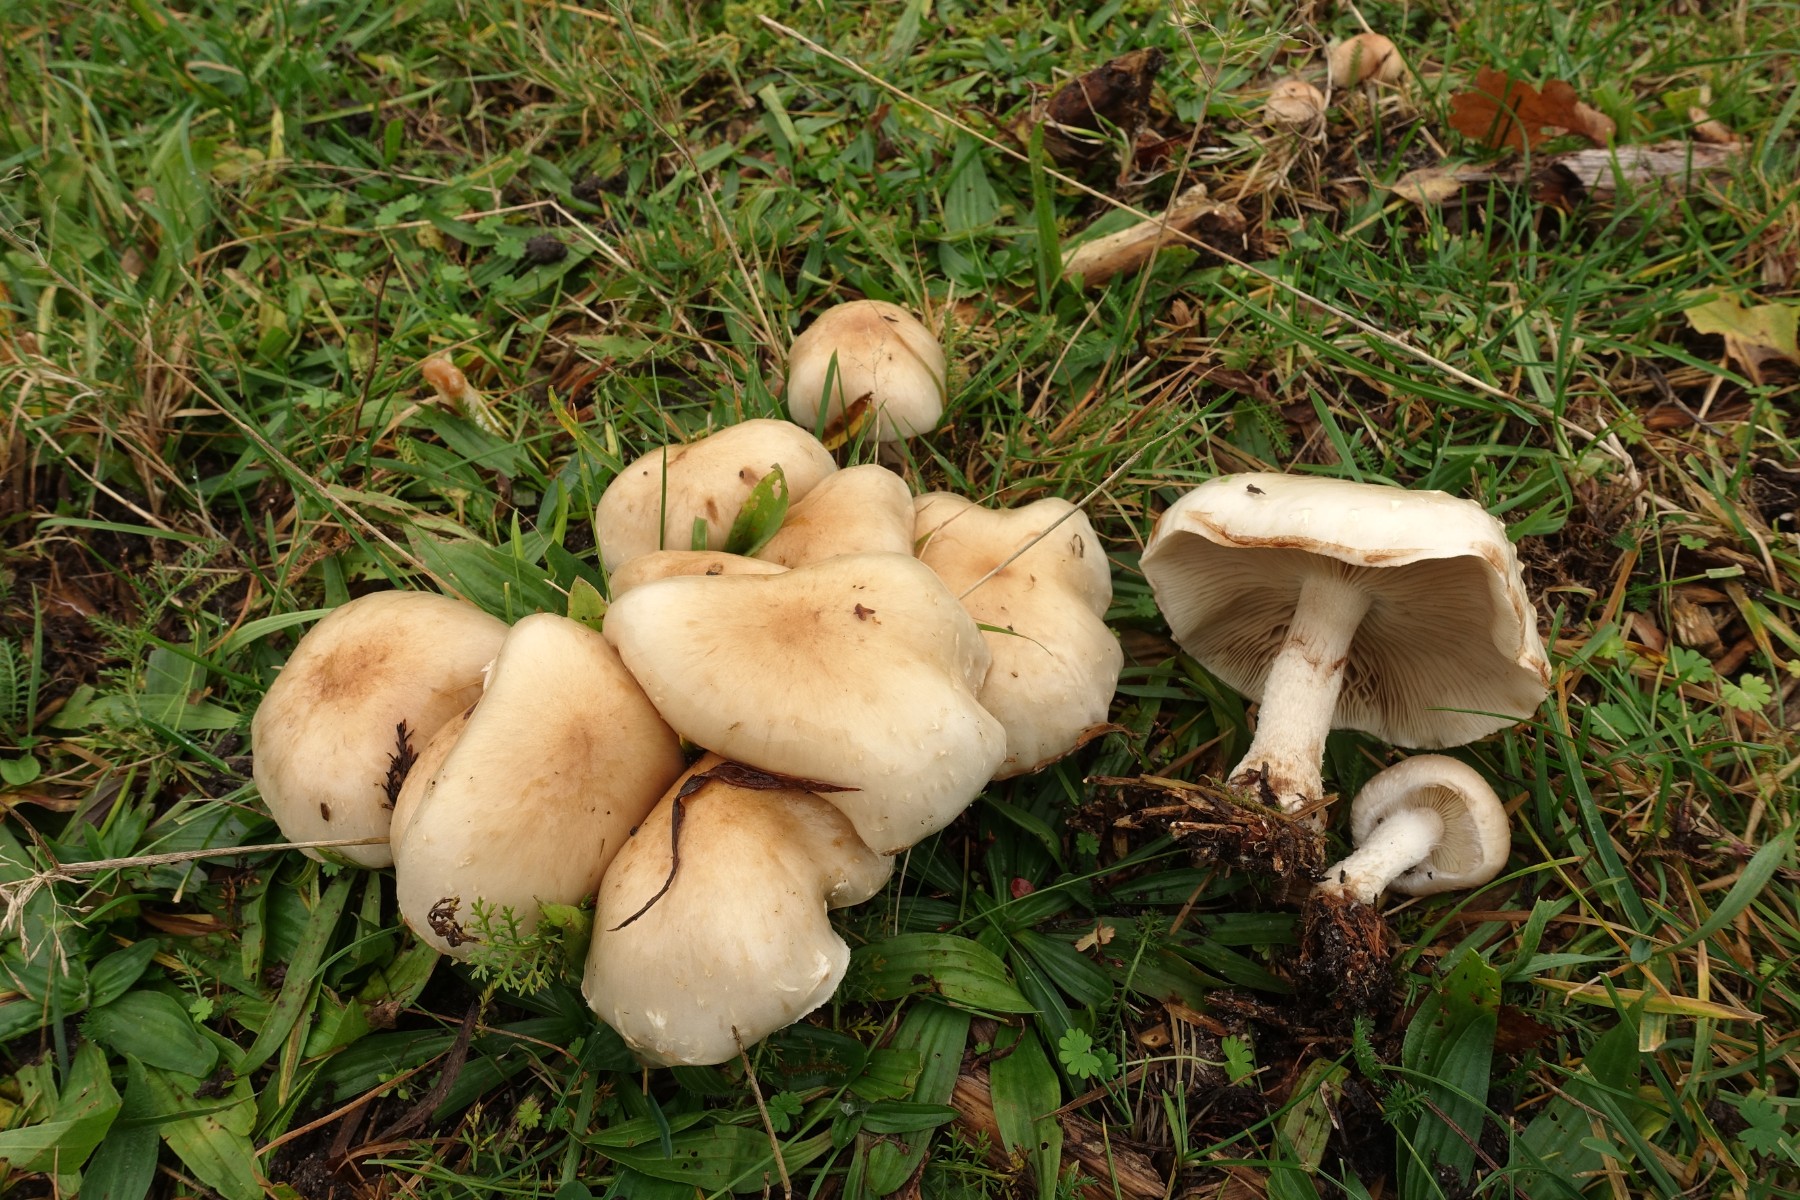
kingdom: Fungi
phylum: Basidiomycota
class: Agaricomycetes
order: Agaricales
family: Strophariaceae
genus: Pholiota
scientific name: Pholiota lenta
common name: løv-skælhat
